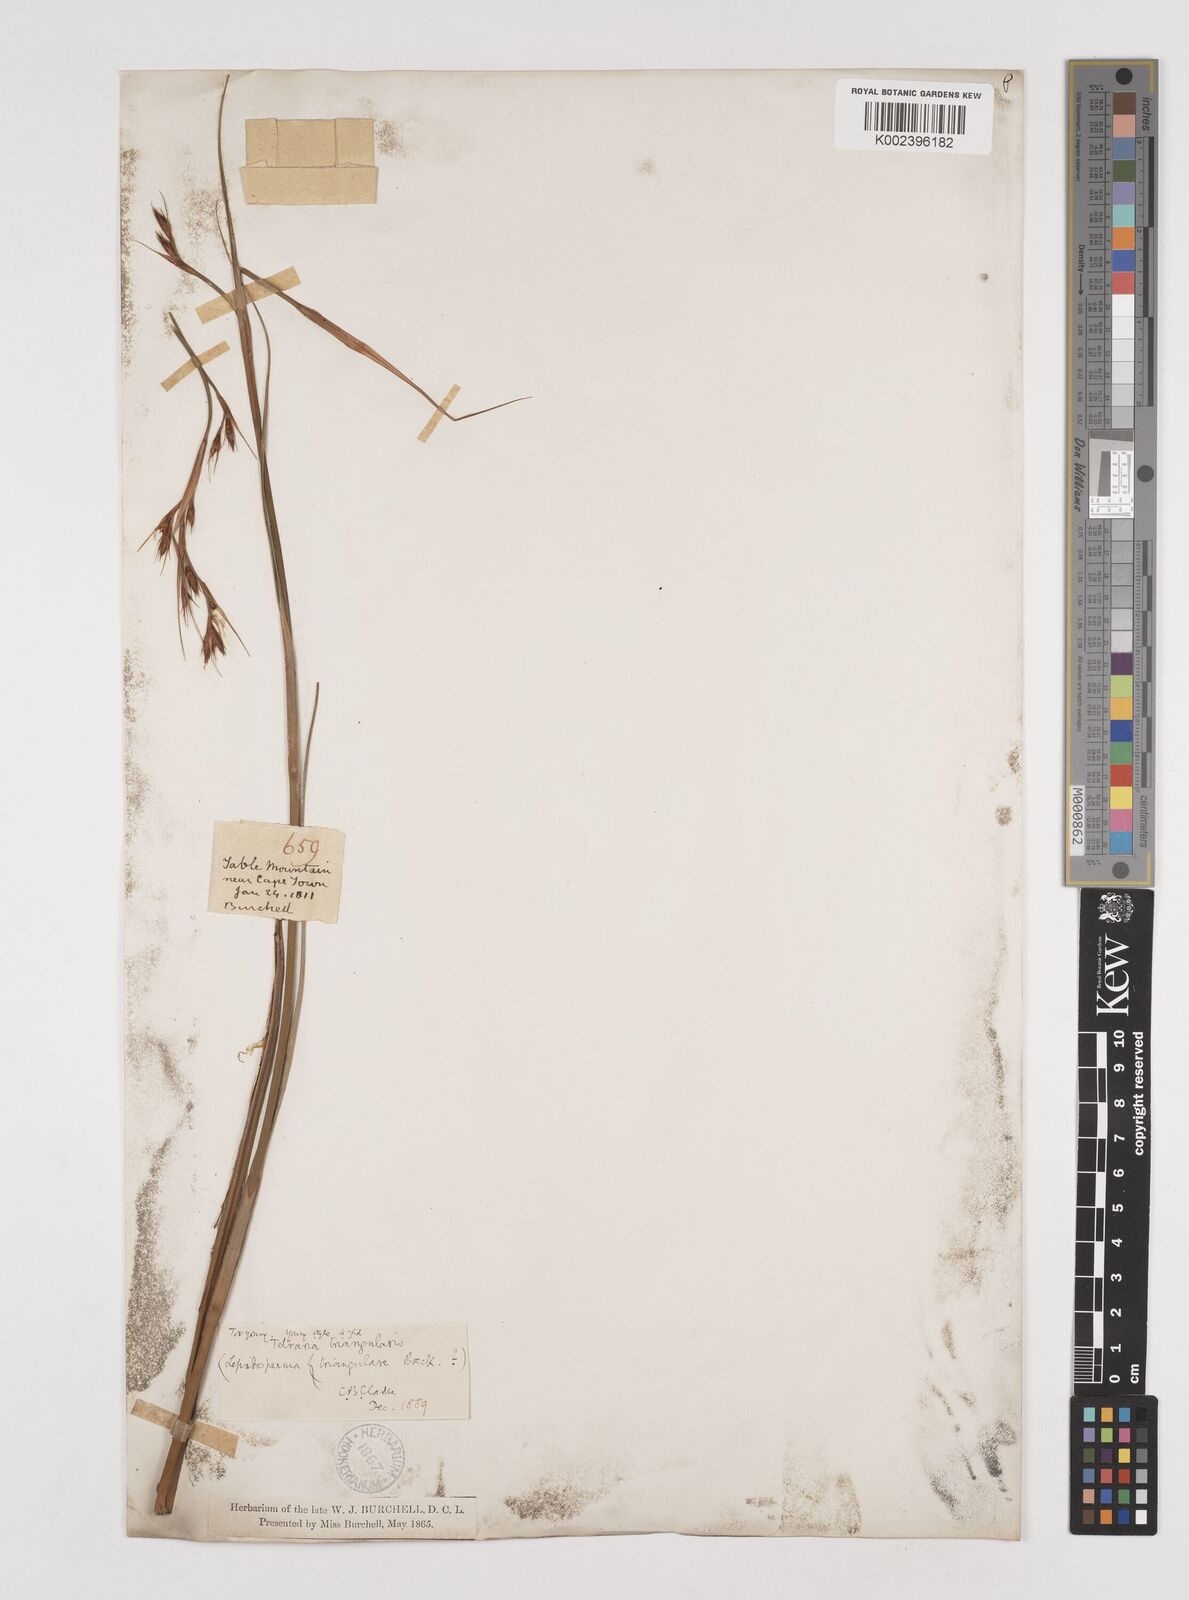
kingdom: Plantae
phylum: Tracheophyta
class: Liliopsida
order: Poales
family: Cyperaceae
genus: Tetraria
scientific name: Tetraria triangularis
